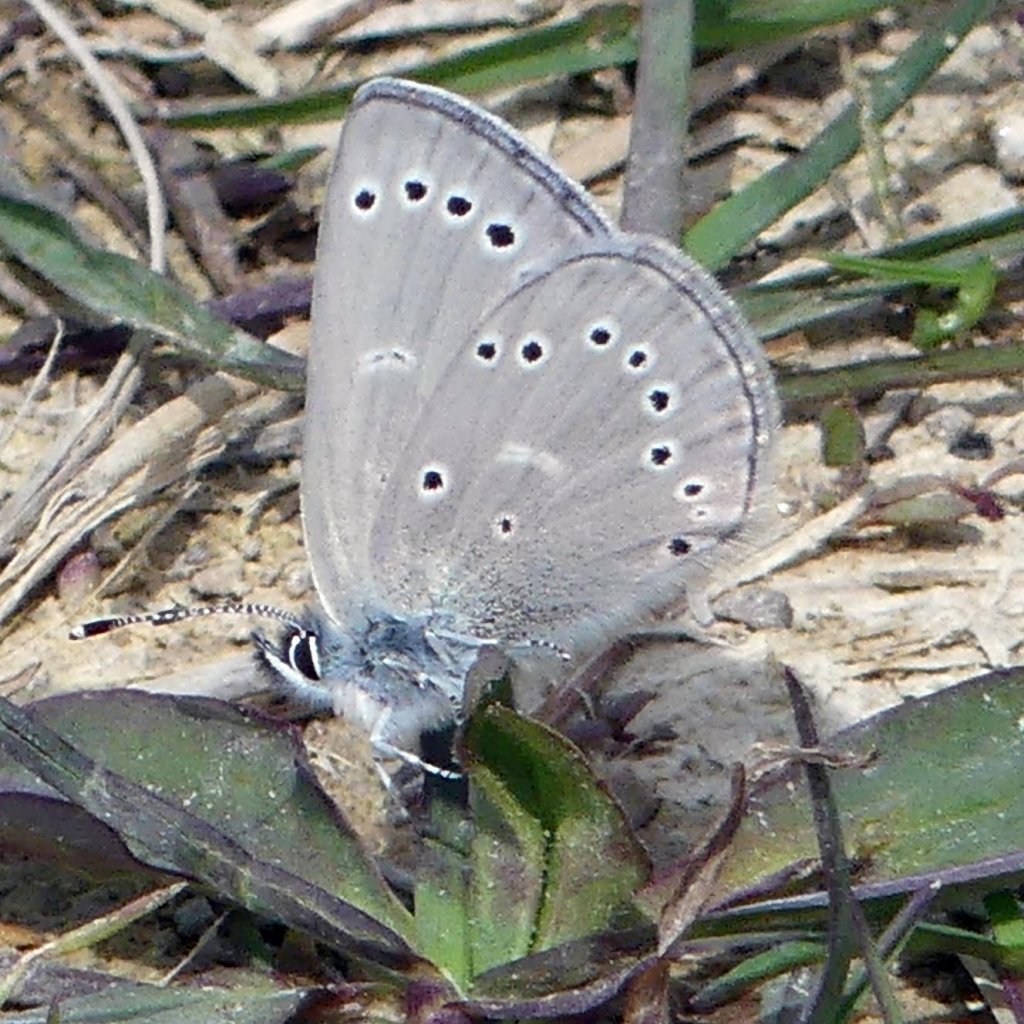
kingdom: Animalia
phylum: Arthropoda
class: Insecta
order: Lepidoptera
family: Lycaenidae
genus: Glaucopsyche
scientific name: Glaucopsyche lygdamus
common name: Silvery Blue
